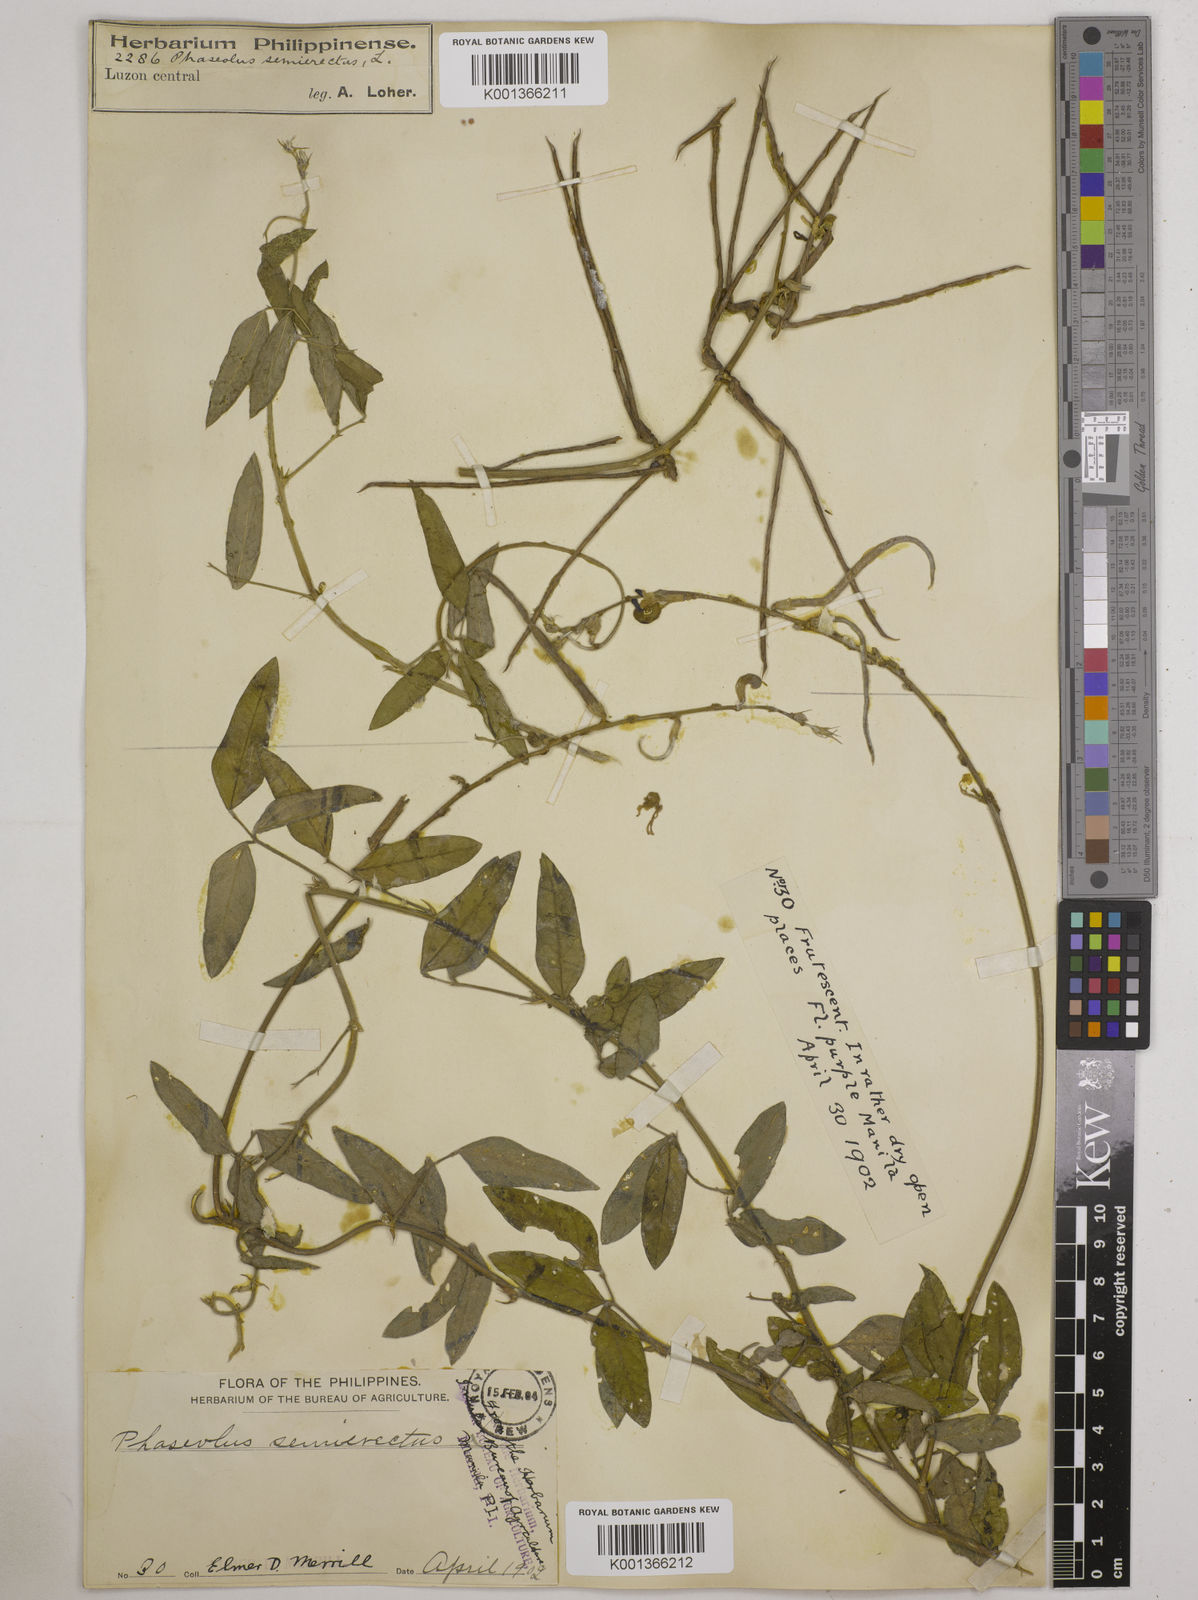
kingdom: Plantae
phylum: Tracheophyta
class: Magnoliopsida
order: Fabales
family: Fabaceae
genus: Macroptilium
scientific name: Macroptilium lathyroides
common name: Wild bushbean
